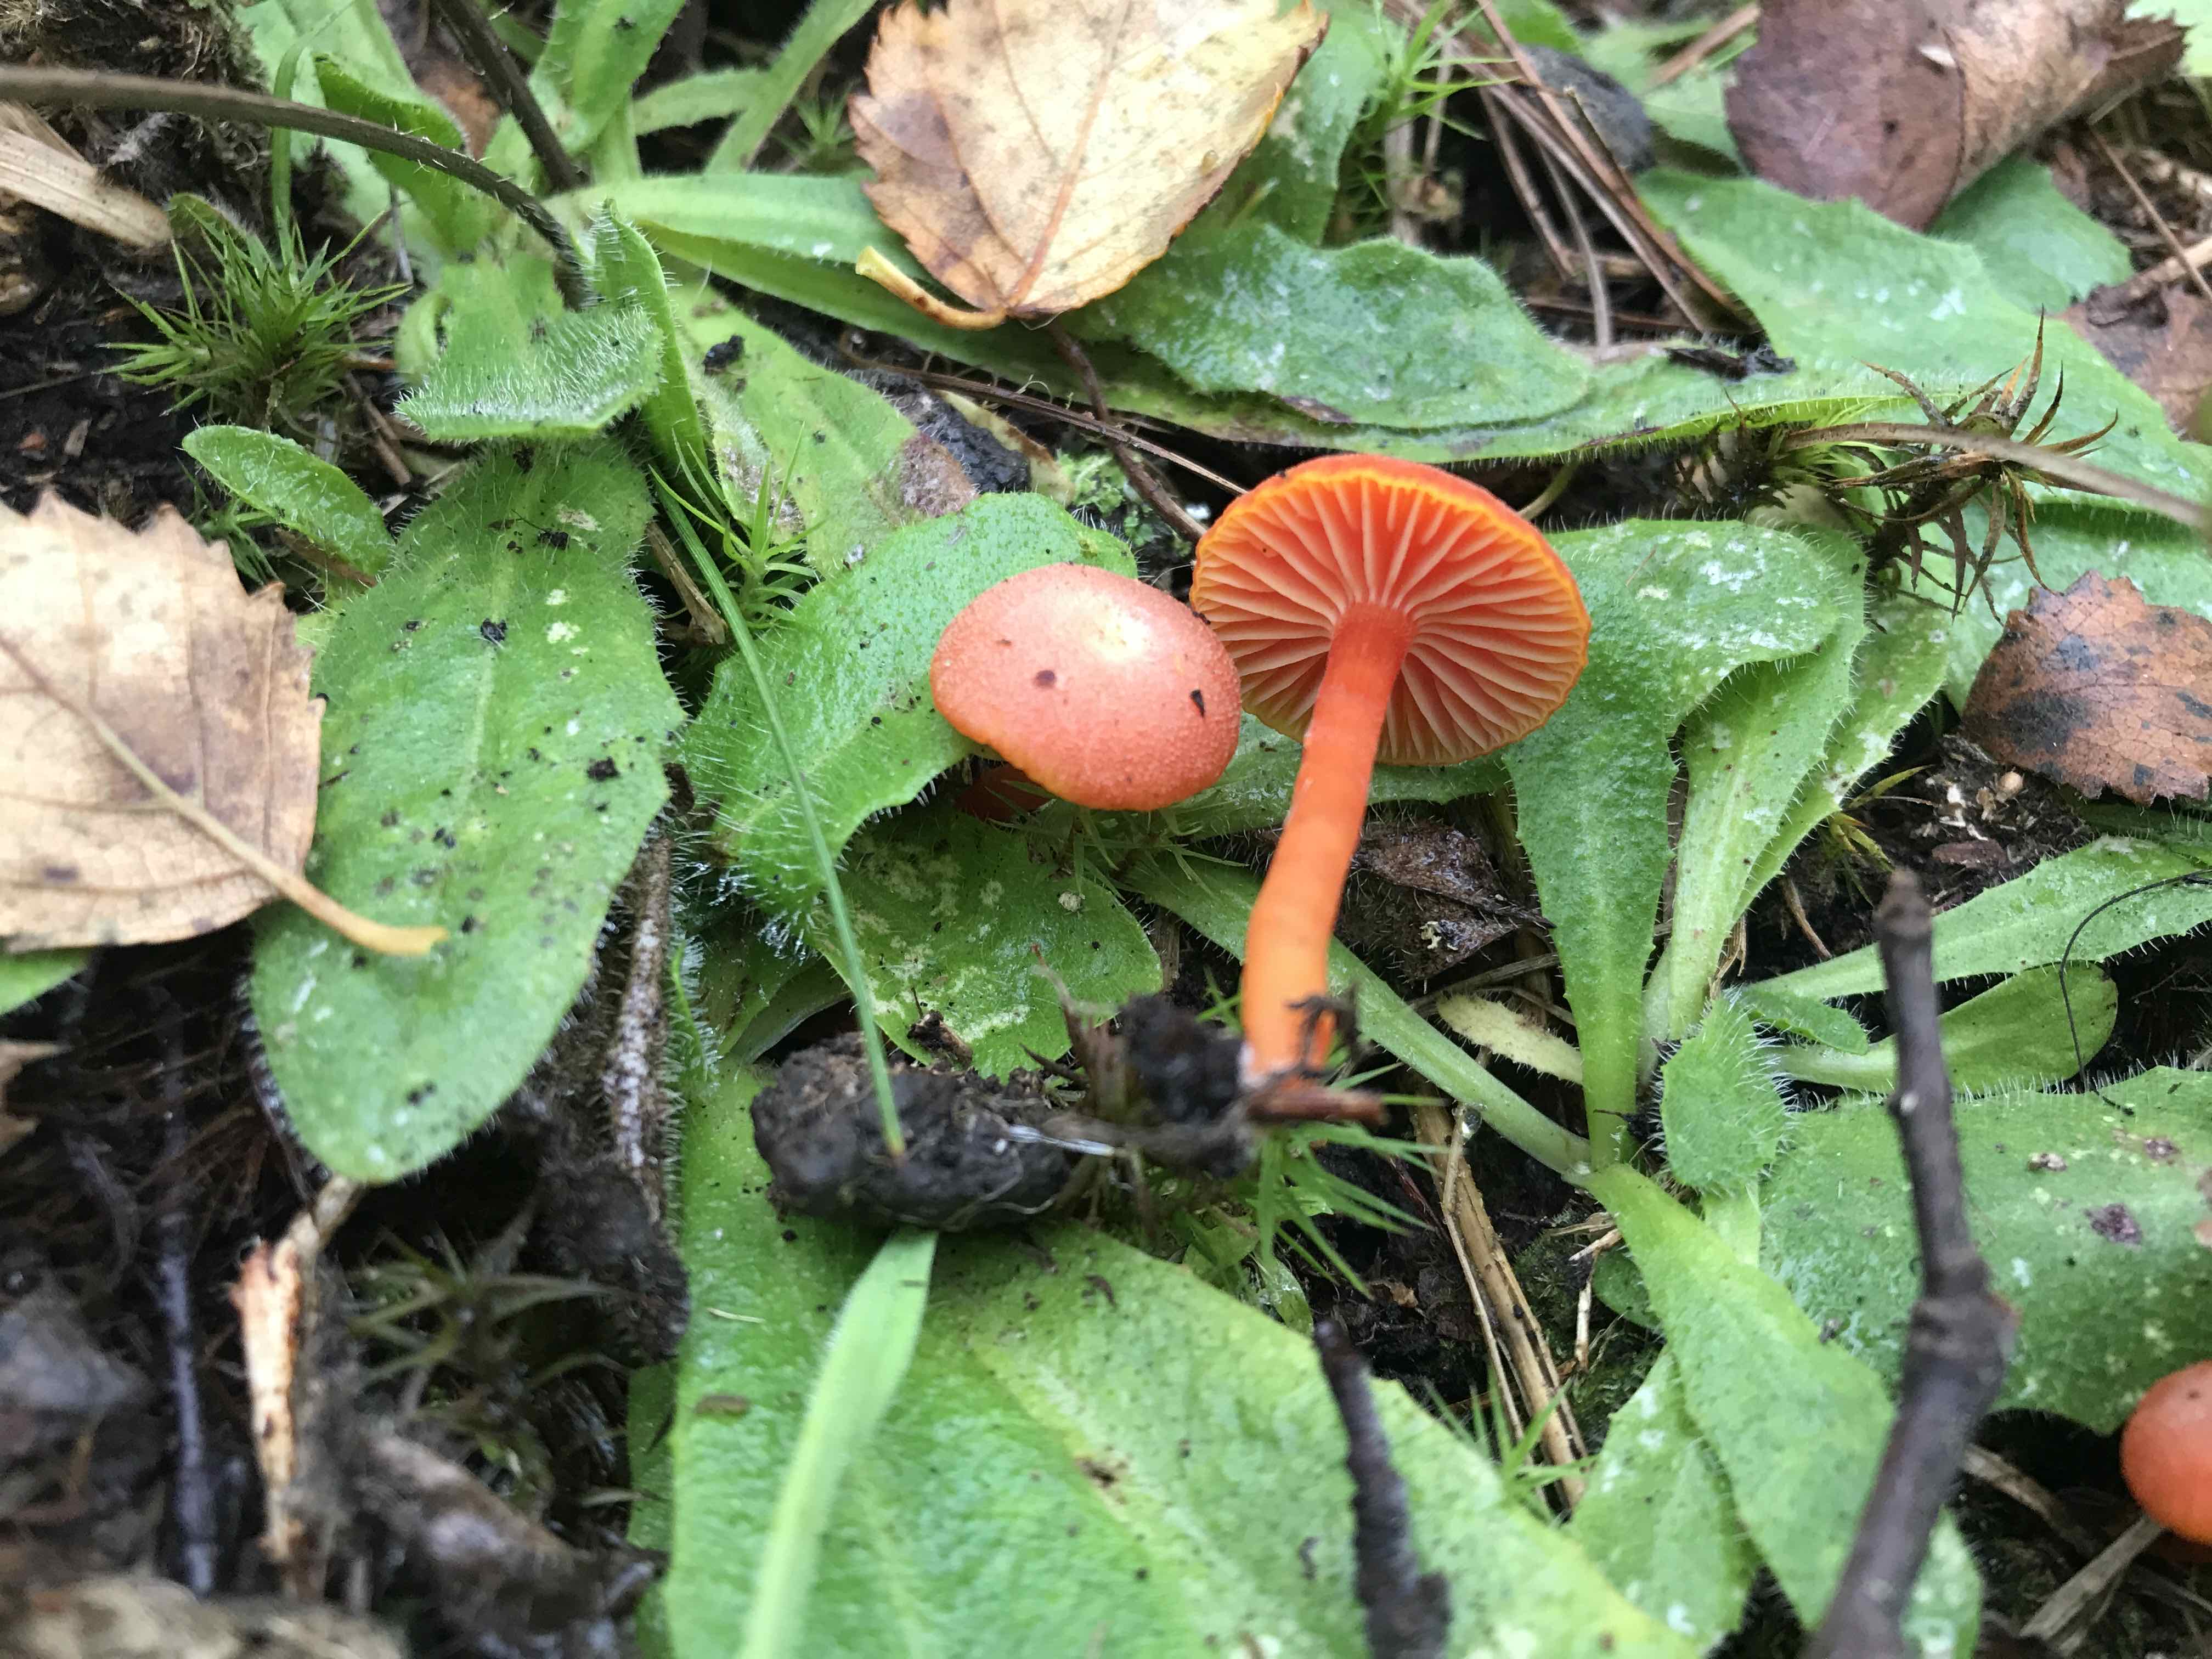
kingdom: Fungi
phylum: Basidiomycota
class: Agaricomycetes
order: Agaricales
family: Hygrophoraceae
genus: Hygrocybe
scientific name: Hygrocybe miniata
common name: mønje-vokshat
